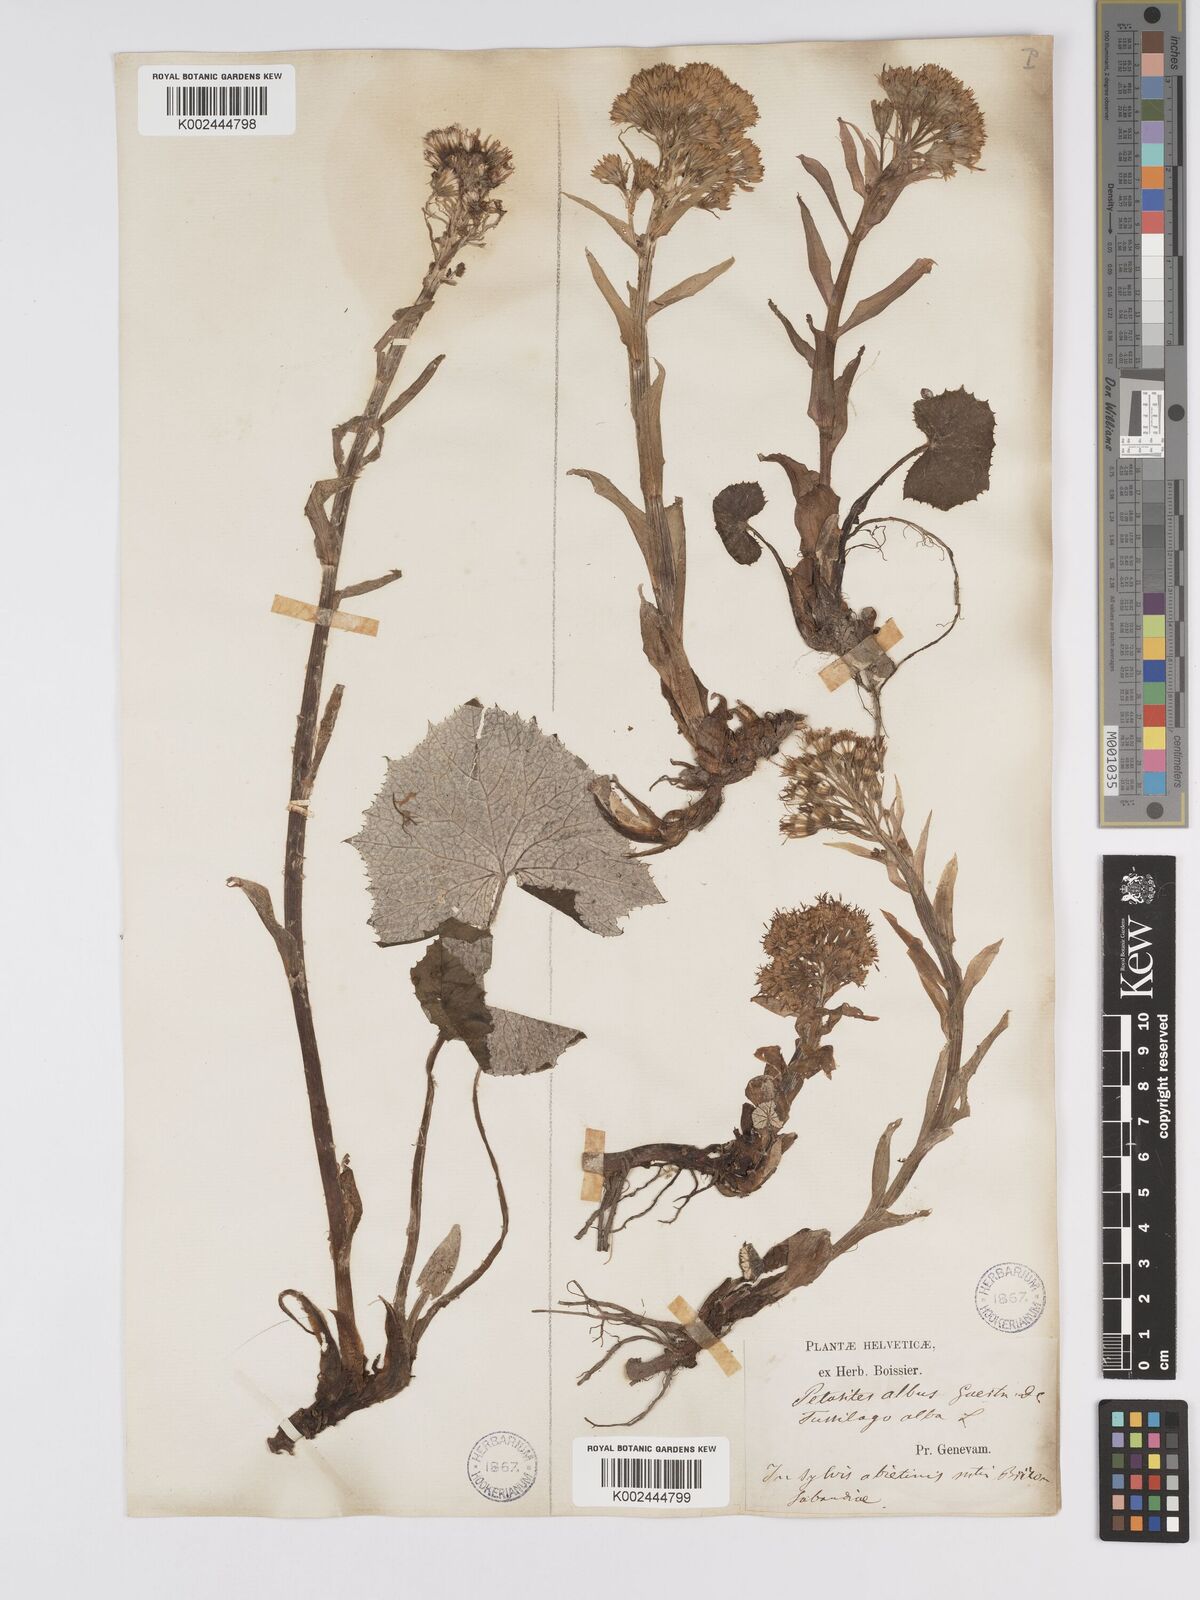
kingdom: Plantae
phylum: Tracheophyta
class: Magnoliopsida
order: Asterales
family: Asteraceae
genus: Petasites
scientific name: Petasites albus
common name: White butterbur
